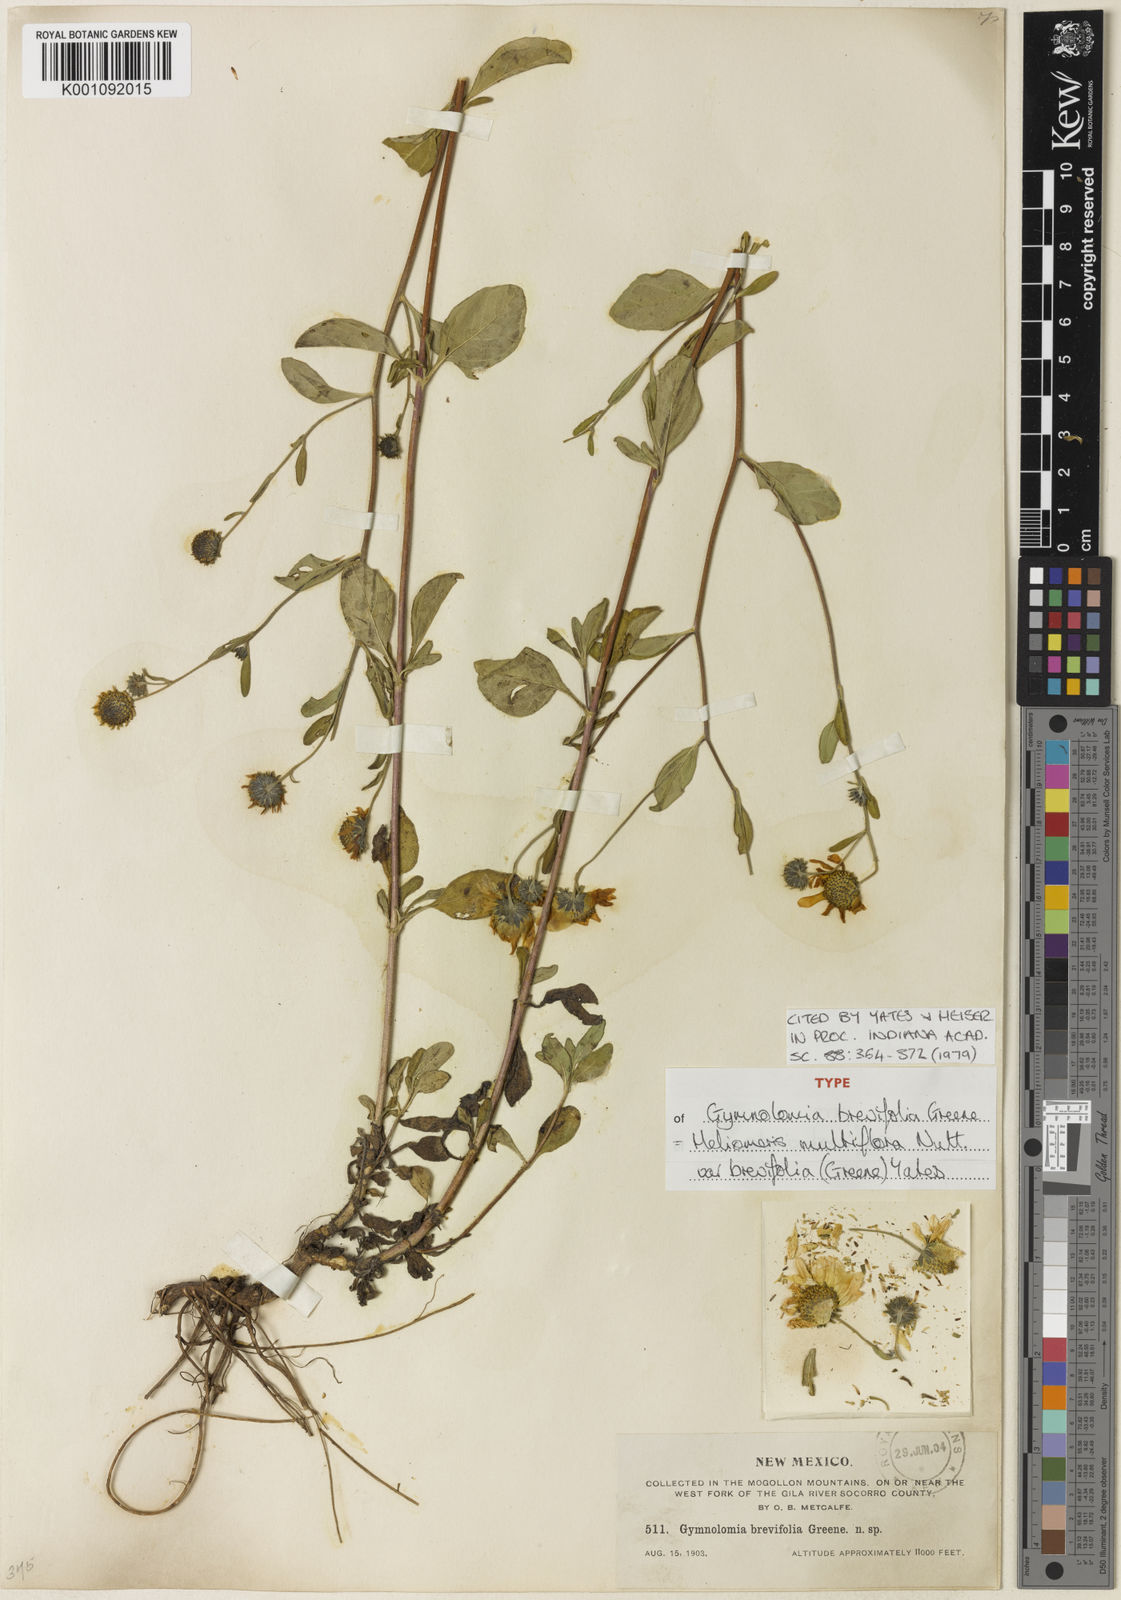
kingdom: Plantae
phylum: Tracheophyta
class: Magnoliopsida
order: Asterales
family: Asteraceae
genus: Heliomeris
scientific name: Heliomeris multiflora
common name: Showy goldeneye
